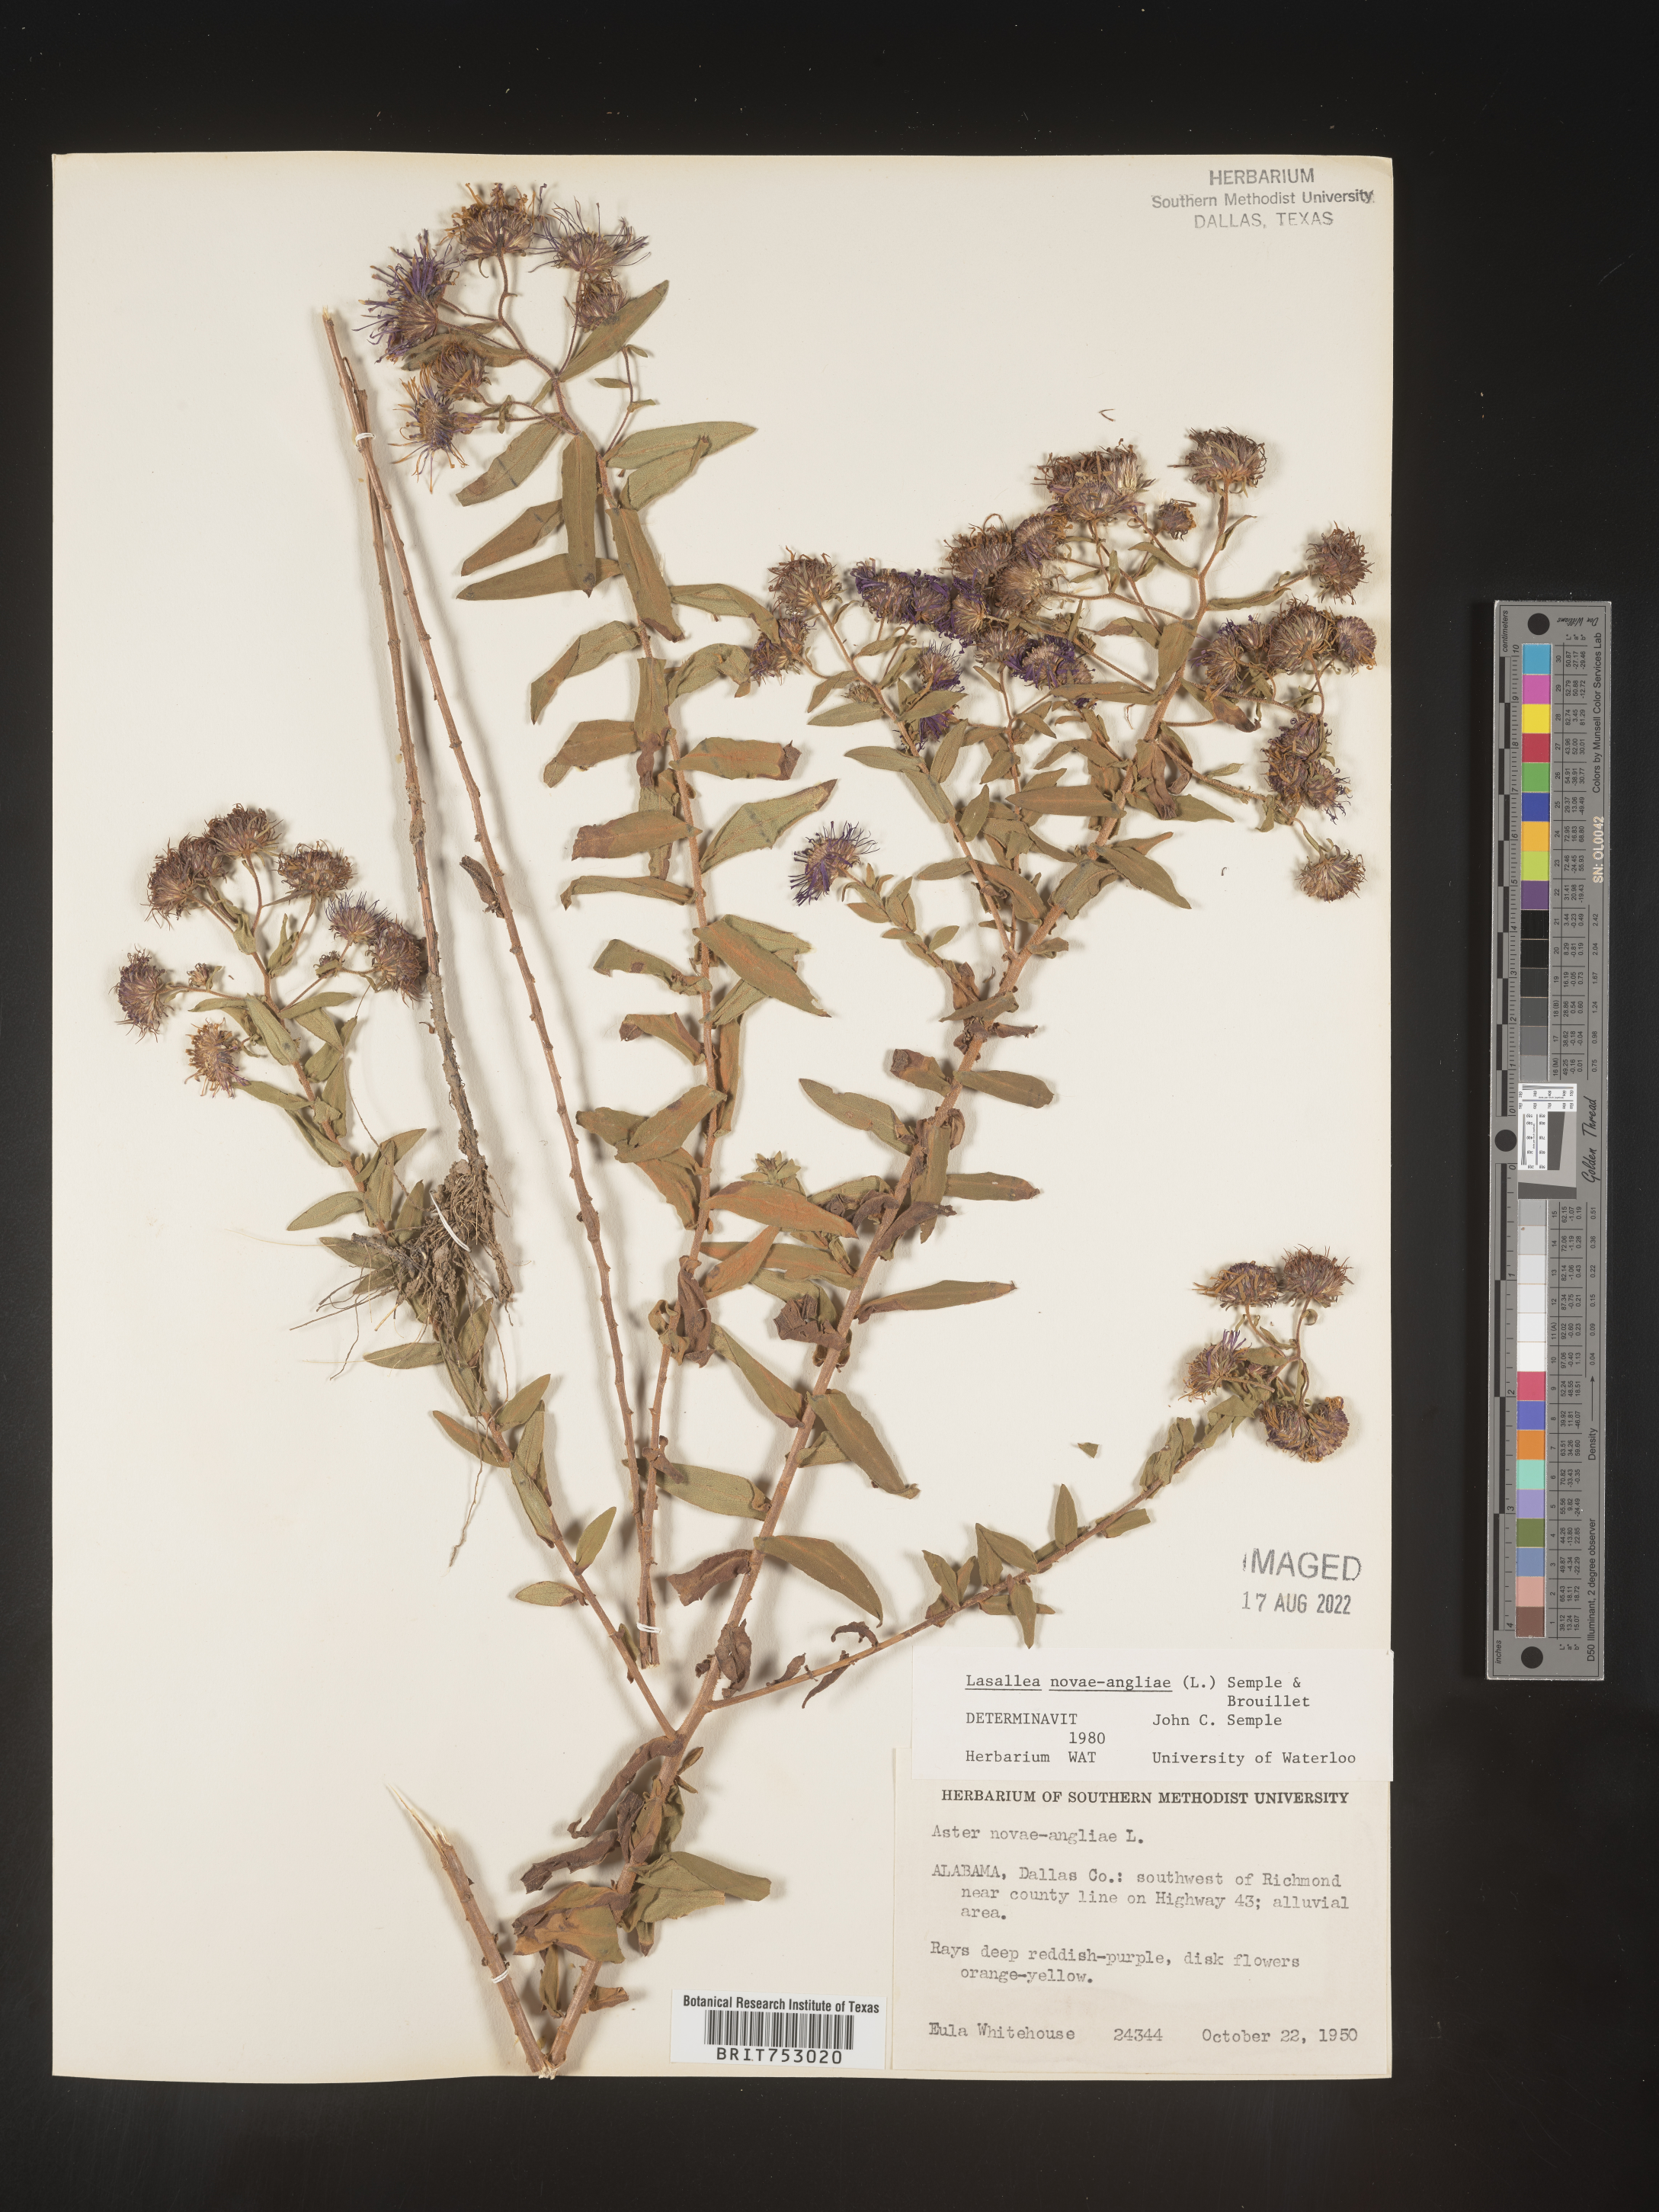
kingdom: Plantae
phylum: Tracheophyta
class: Magnoliopsida
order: Asterales
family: Asteraceae
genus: Symphyotrichum
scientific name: Symphyotrichum novae-angliae
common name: Michaelmas daisy
